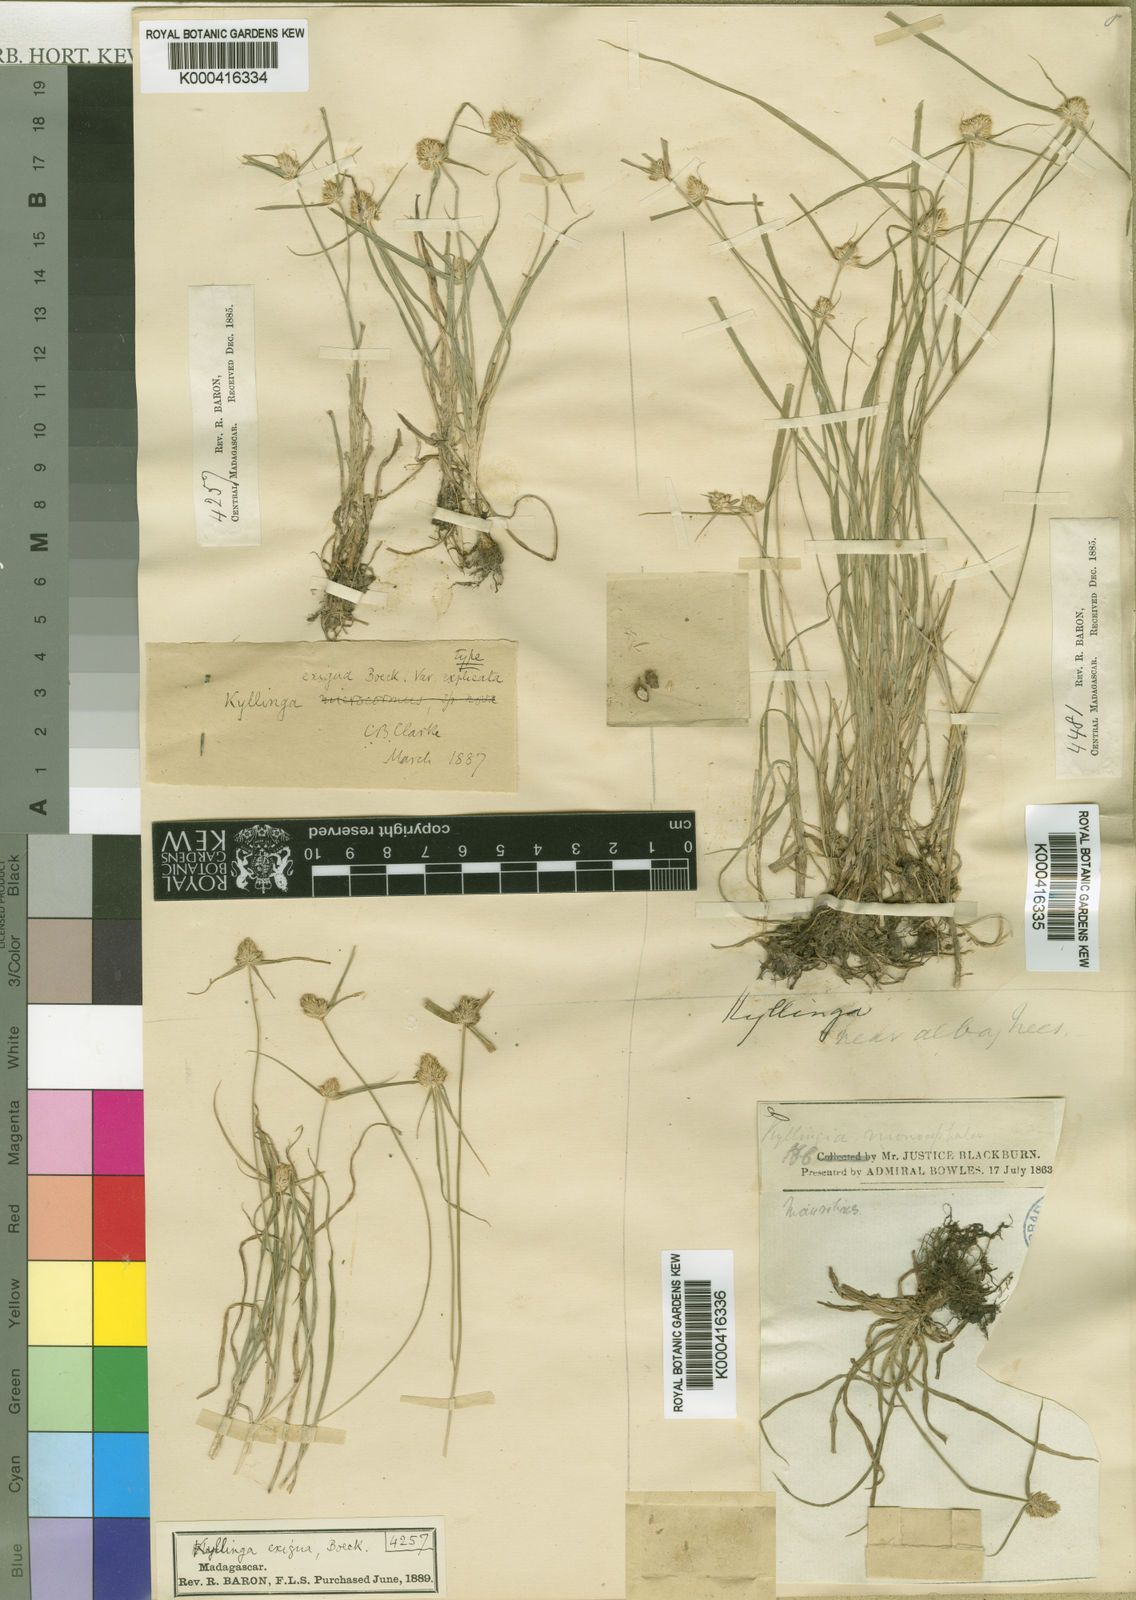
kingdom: Plantae
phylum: Tracheophyta
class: Liliopsida
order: Poales
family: Cyperaceae
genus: Cyperus
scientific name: Cyperus richardii
